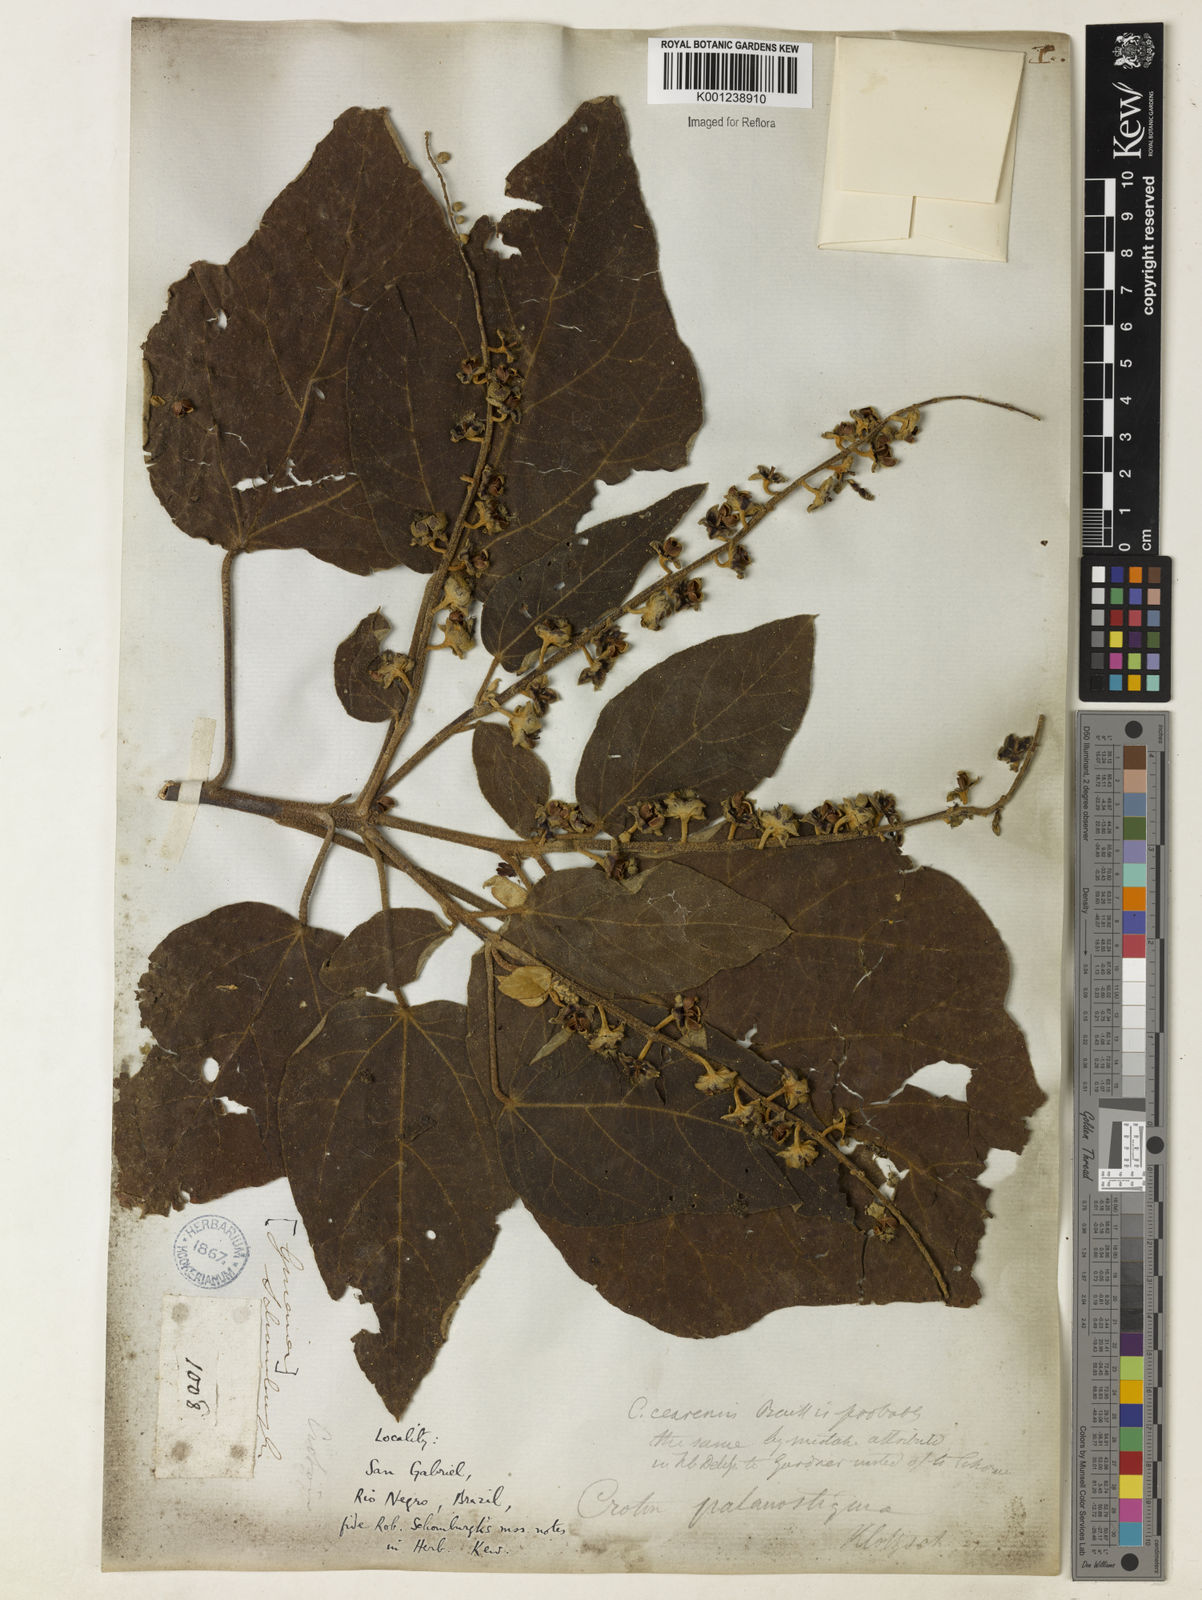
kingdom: Plantae
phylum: Tracheophyta
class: Magnoliopsida
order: Malpighiales
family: Euphorbiaceae
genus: Croton
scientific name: Croton palanostigma
